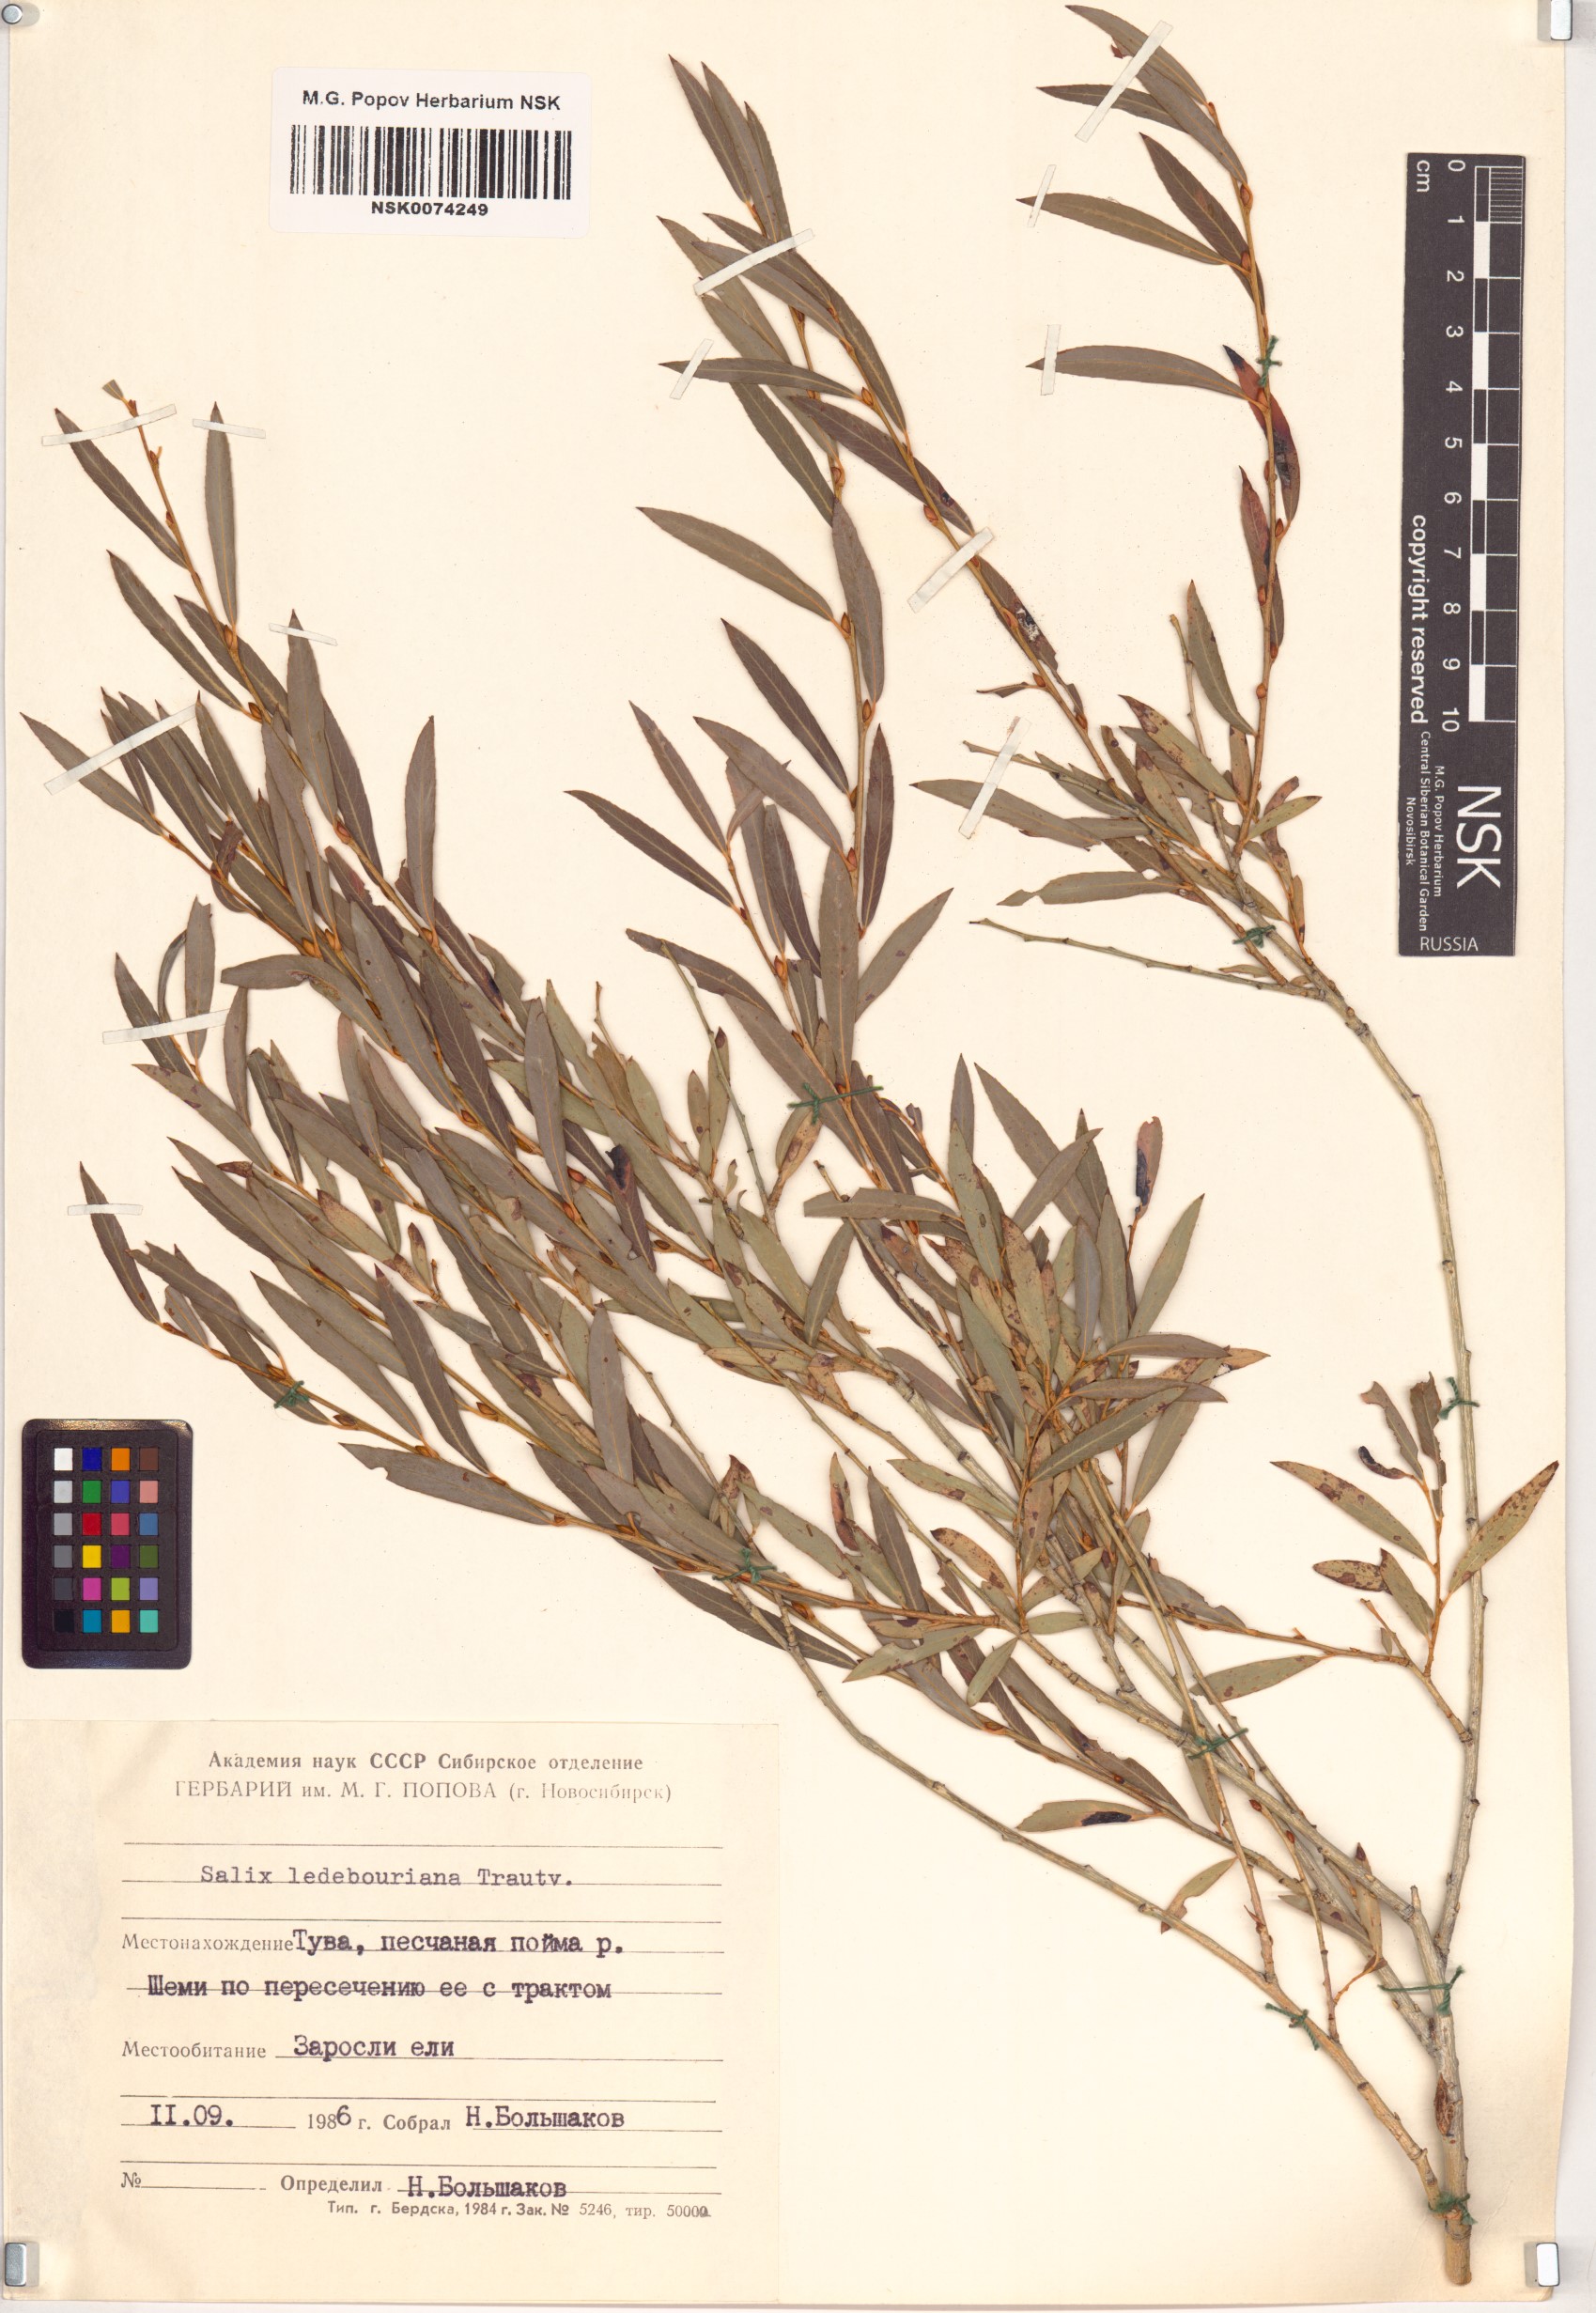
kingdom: Plantae
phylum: Tracheophyta
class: Magnoliopsida
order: Malpighiales
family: Salicaceae
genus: Salix
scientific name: Salix ledebouriana
